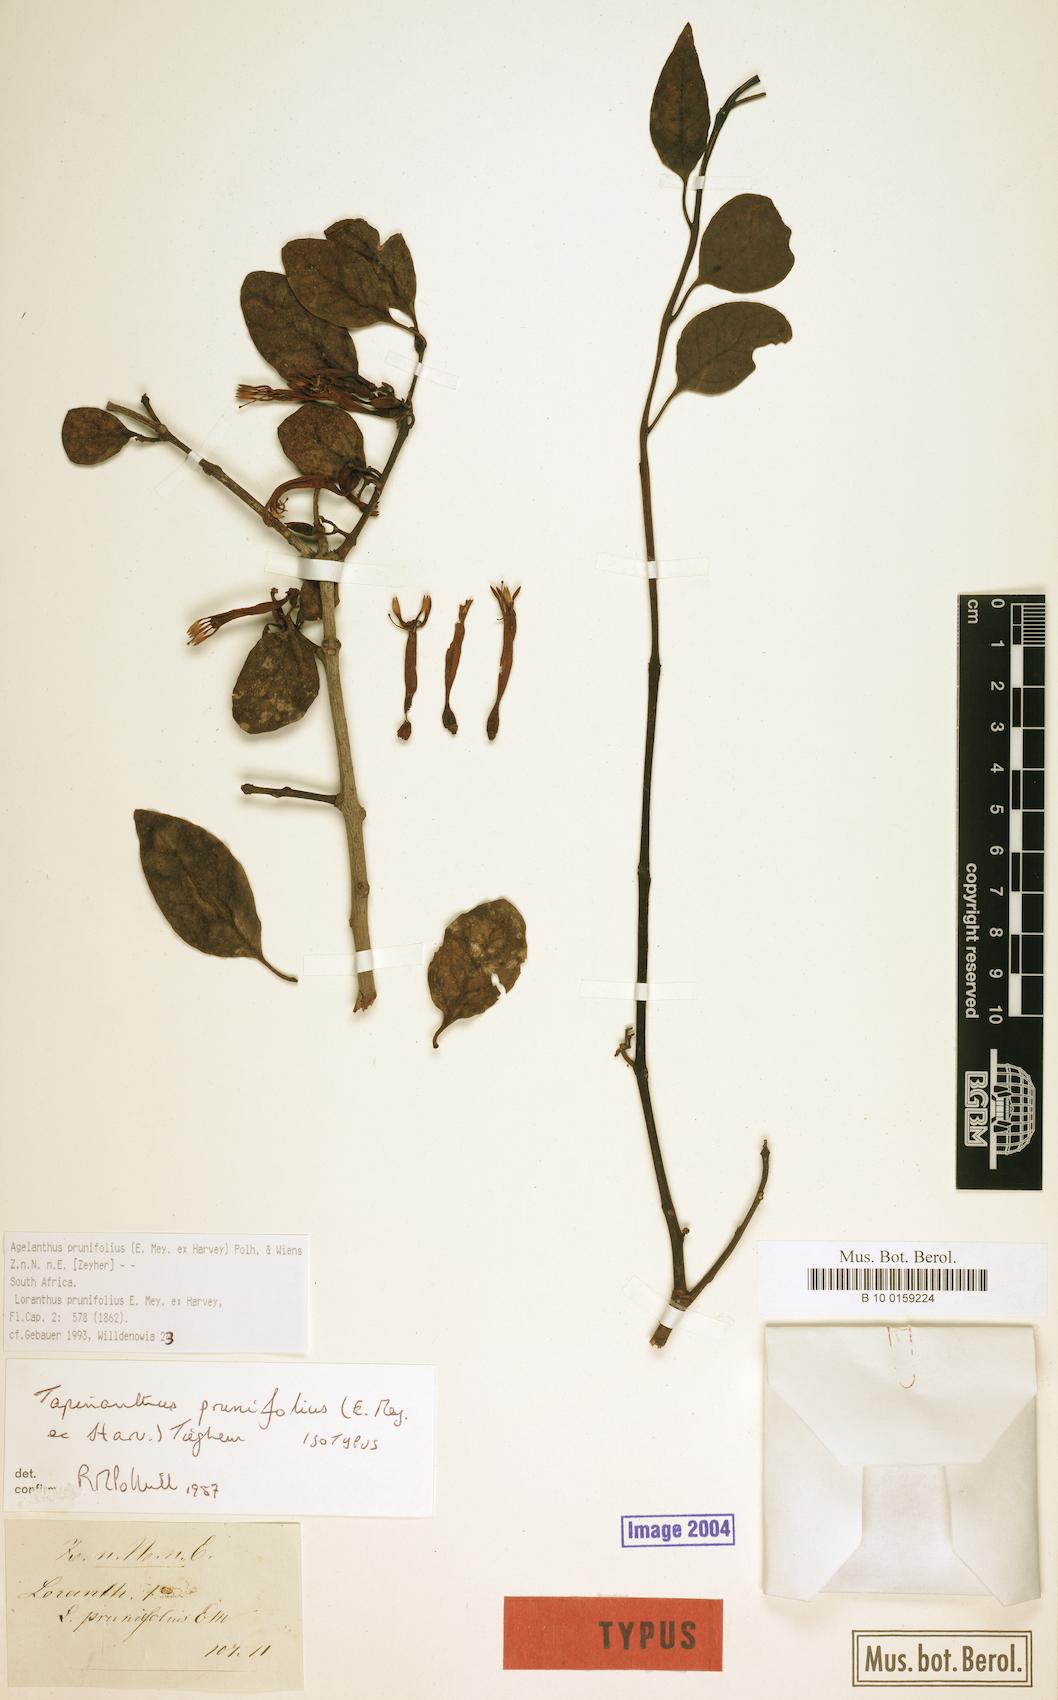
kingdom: Plantae
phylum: Tracheophyta
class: Magnoliopsida
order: Santalales
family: Loranthaceae
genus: Agelanthus
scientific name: Agelanthus prunifolius
